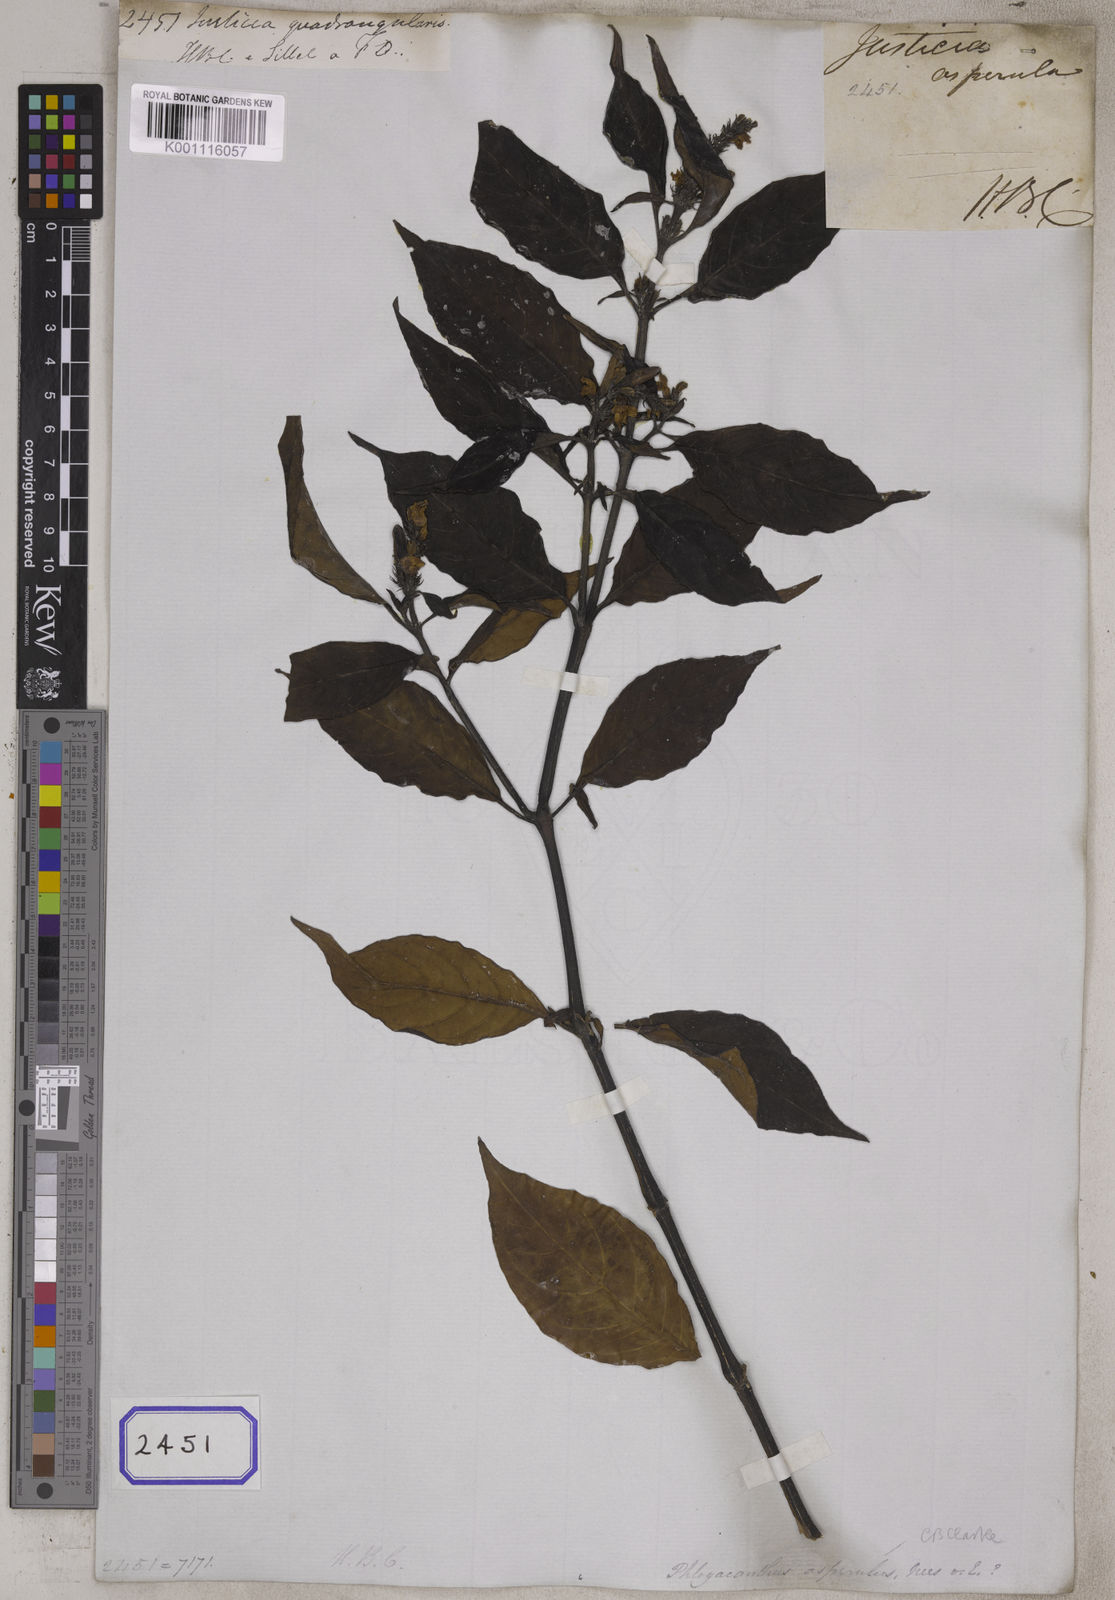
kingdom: Plantae
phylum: Tracheophyta
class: Magnoliopsida
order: Lamiales
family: Acanthaceae
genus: Phlogacanthus
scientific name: Phlogacanthus vitellinus
